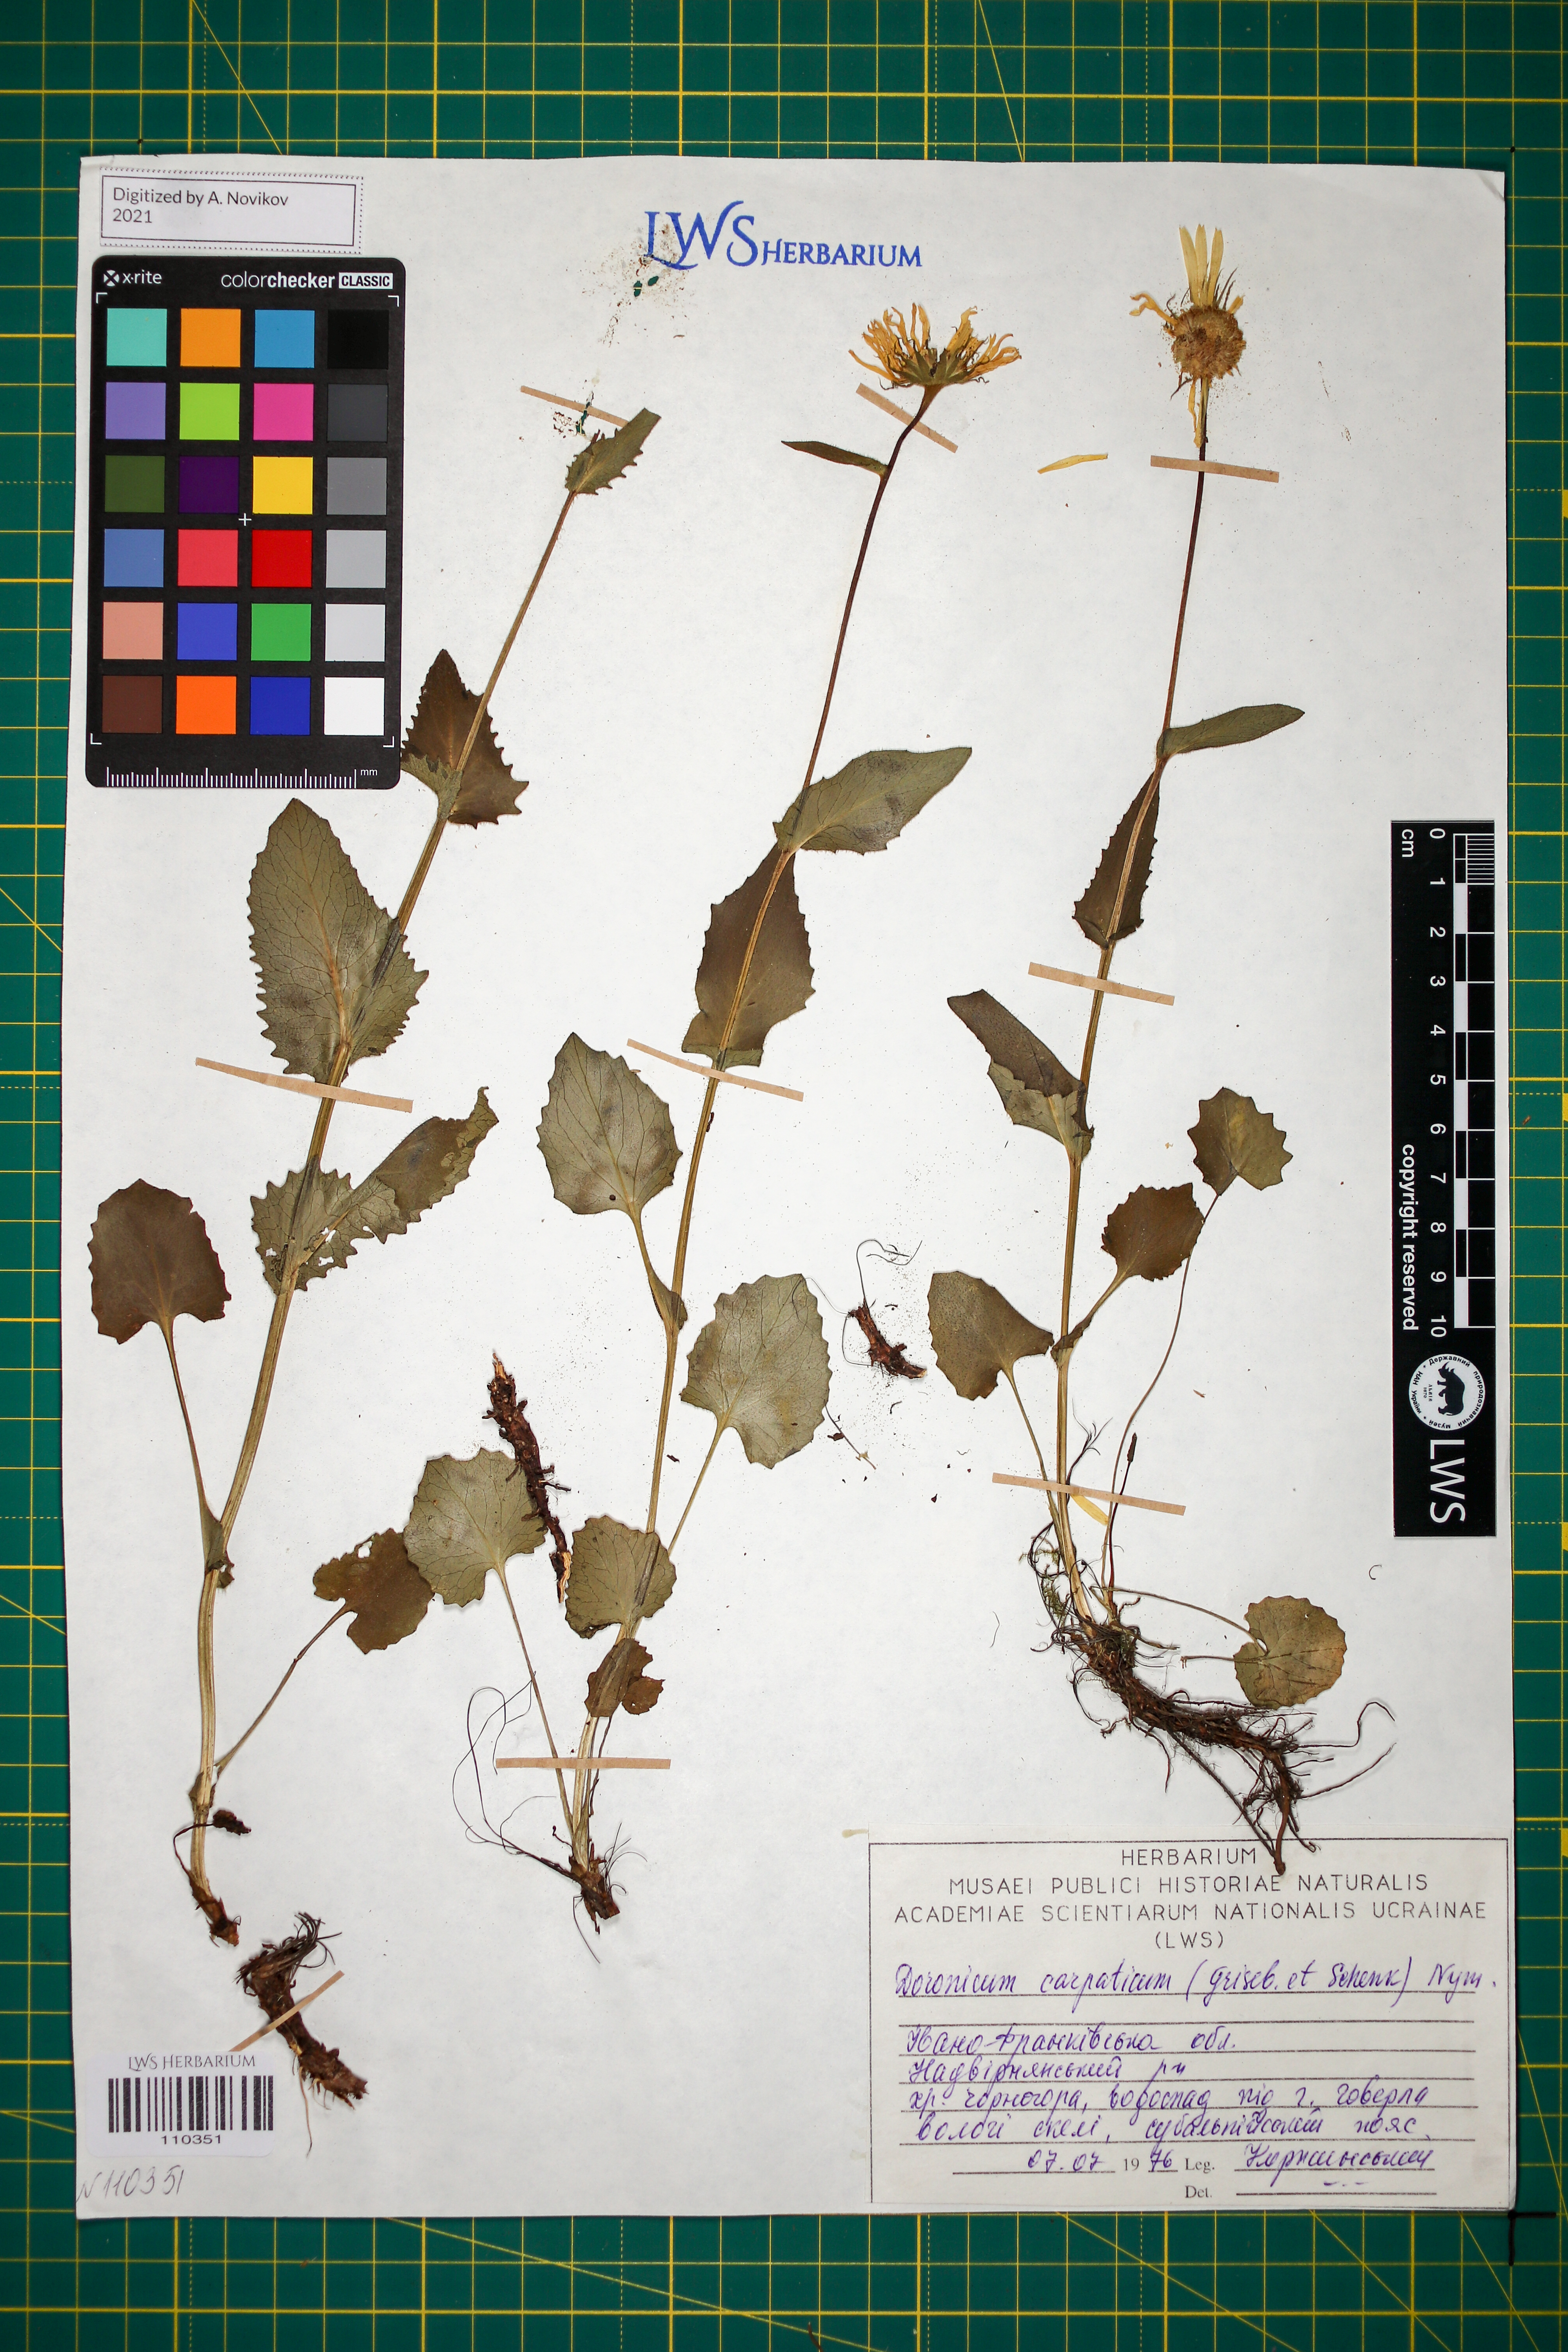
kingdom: Plantae
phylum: Tracheophyta
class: Magnoliopsida
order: Asterales
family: Asteraceae
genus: Doronicum
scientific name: Doronicum carpaticum
